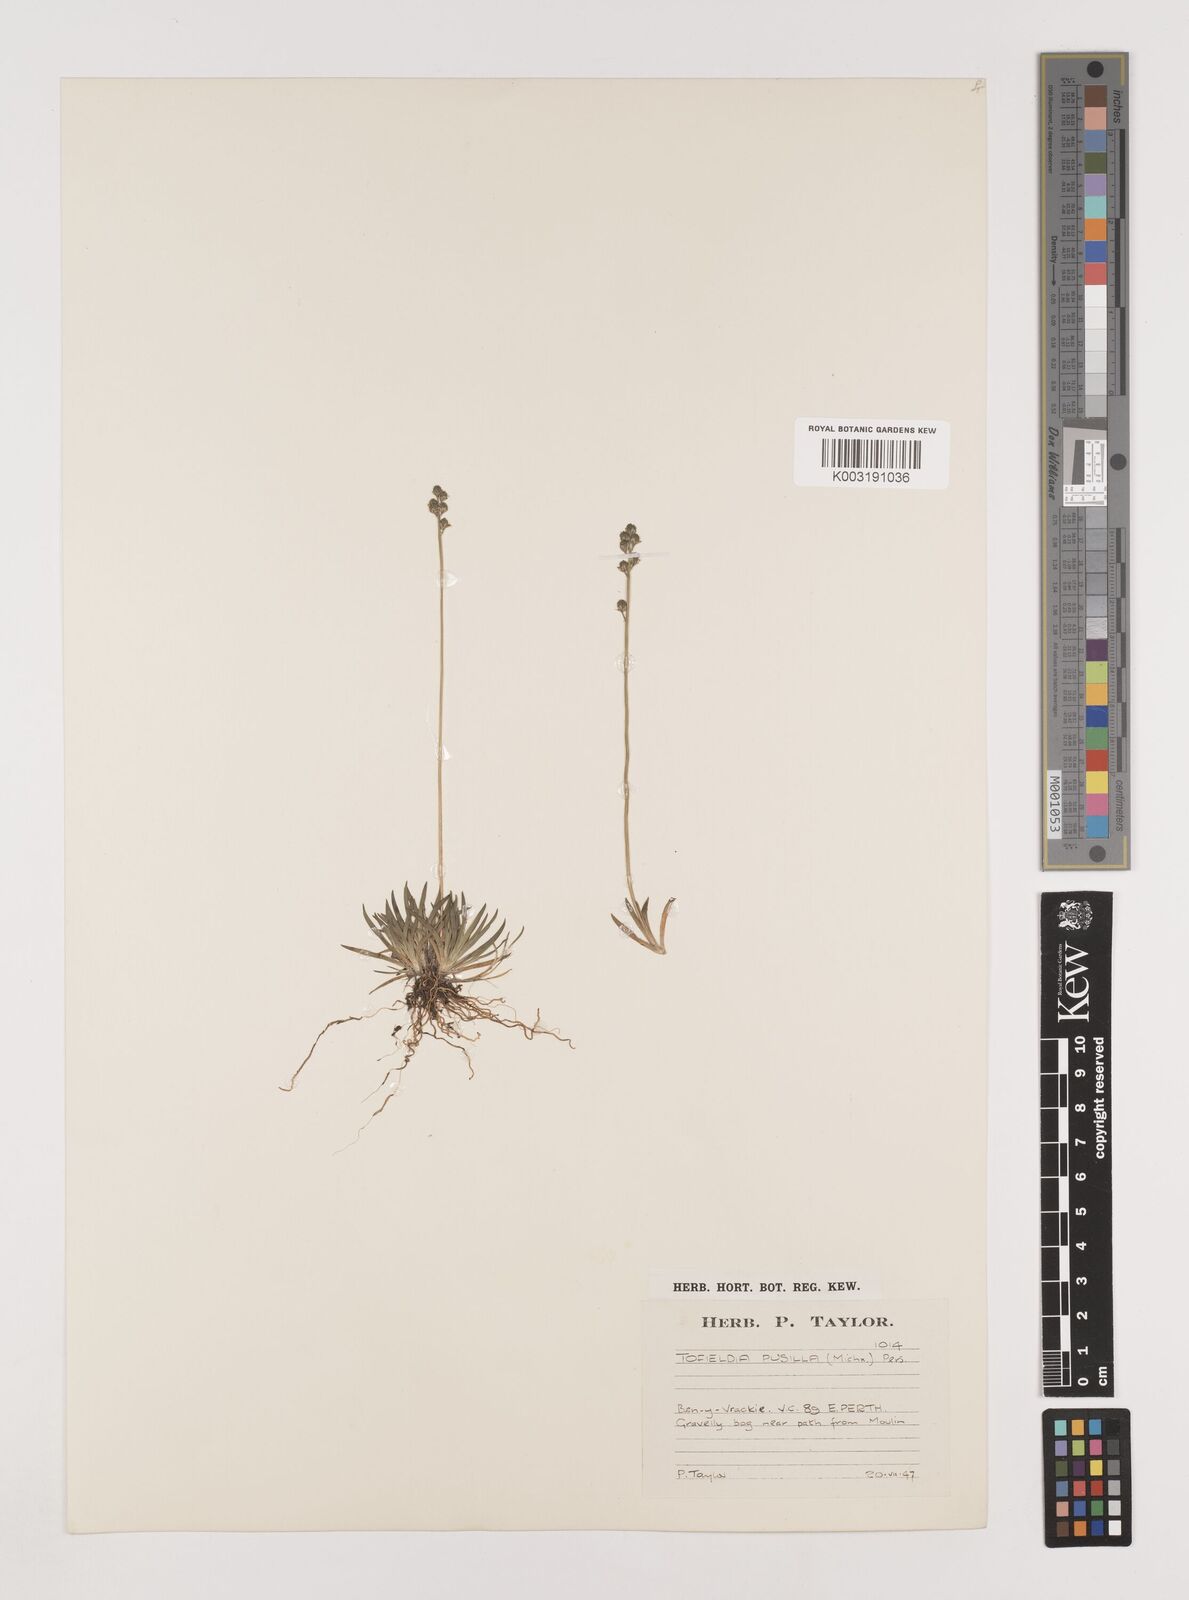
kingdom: Plantae
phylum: Tracheophyta
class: Liliopsida
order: Alismatales
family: Tofieldiaceae
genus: Tofieldia
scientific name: Tofieldia pusilla
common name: Scottish false asphodel
